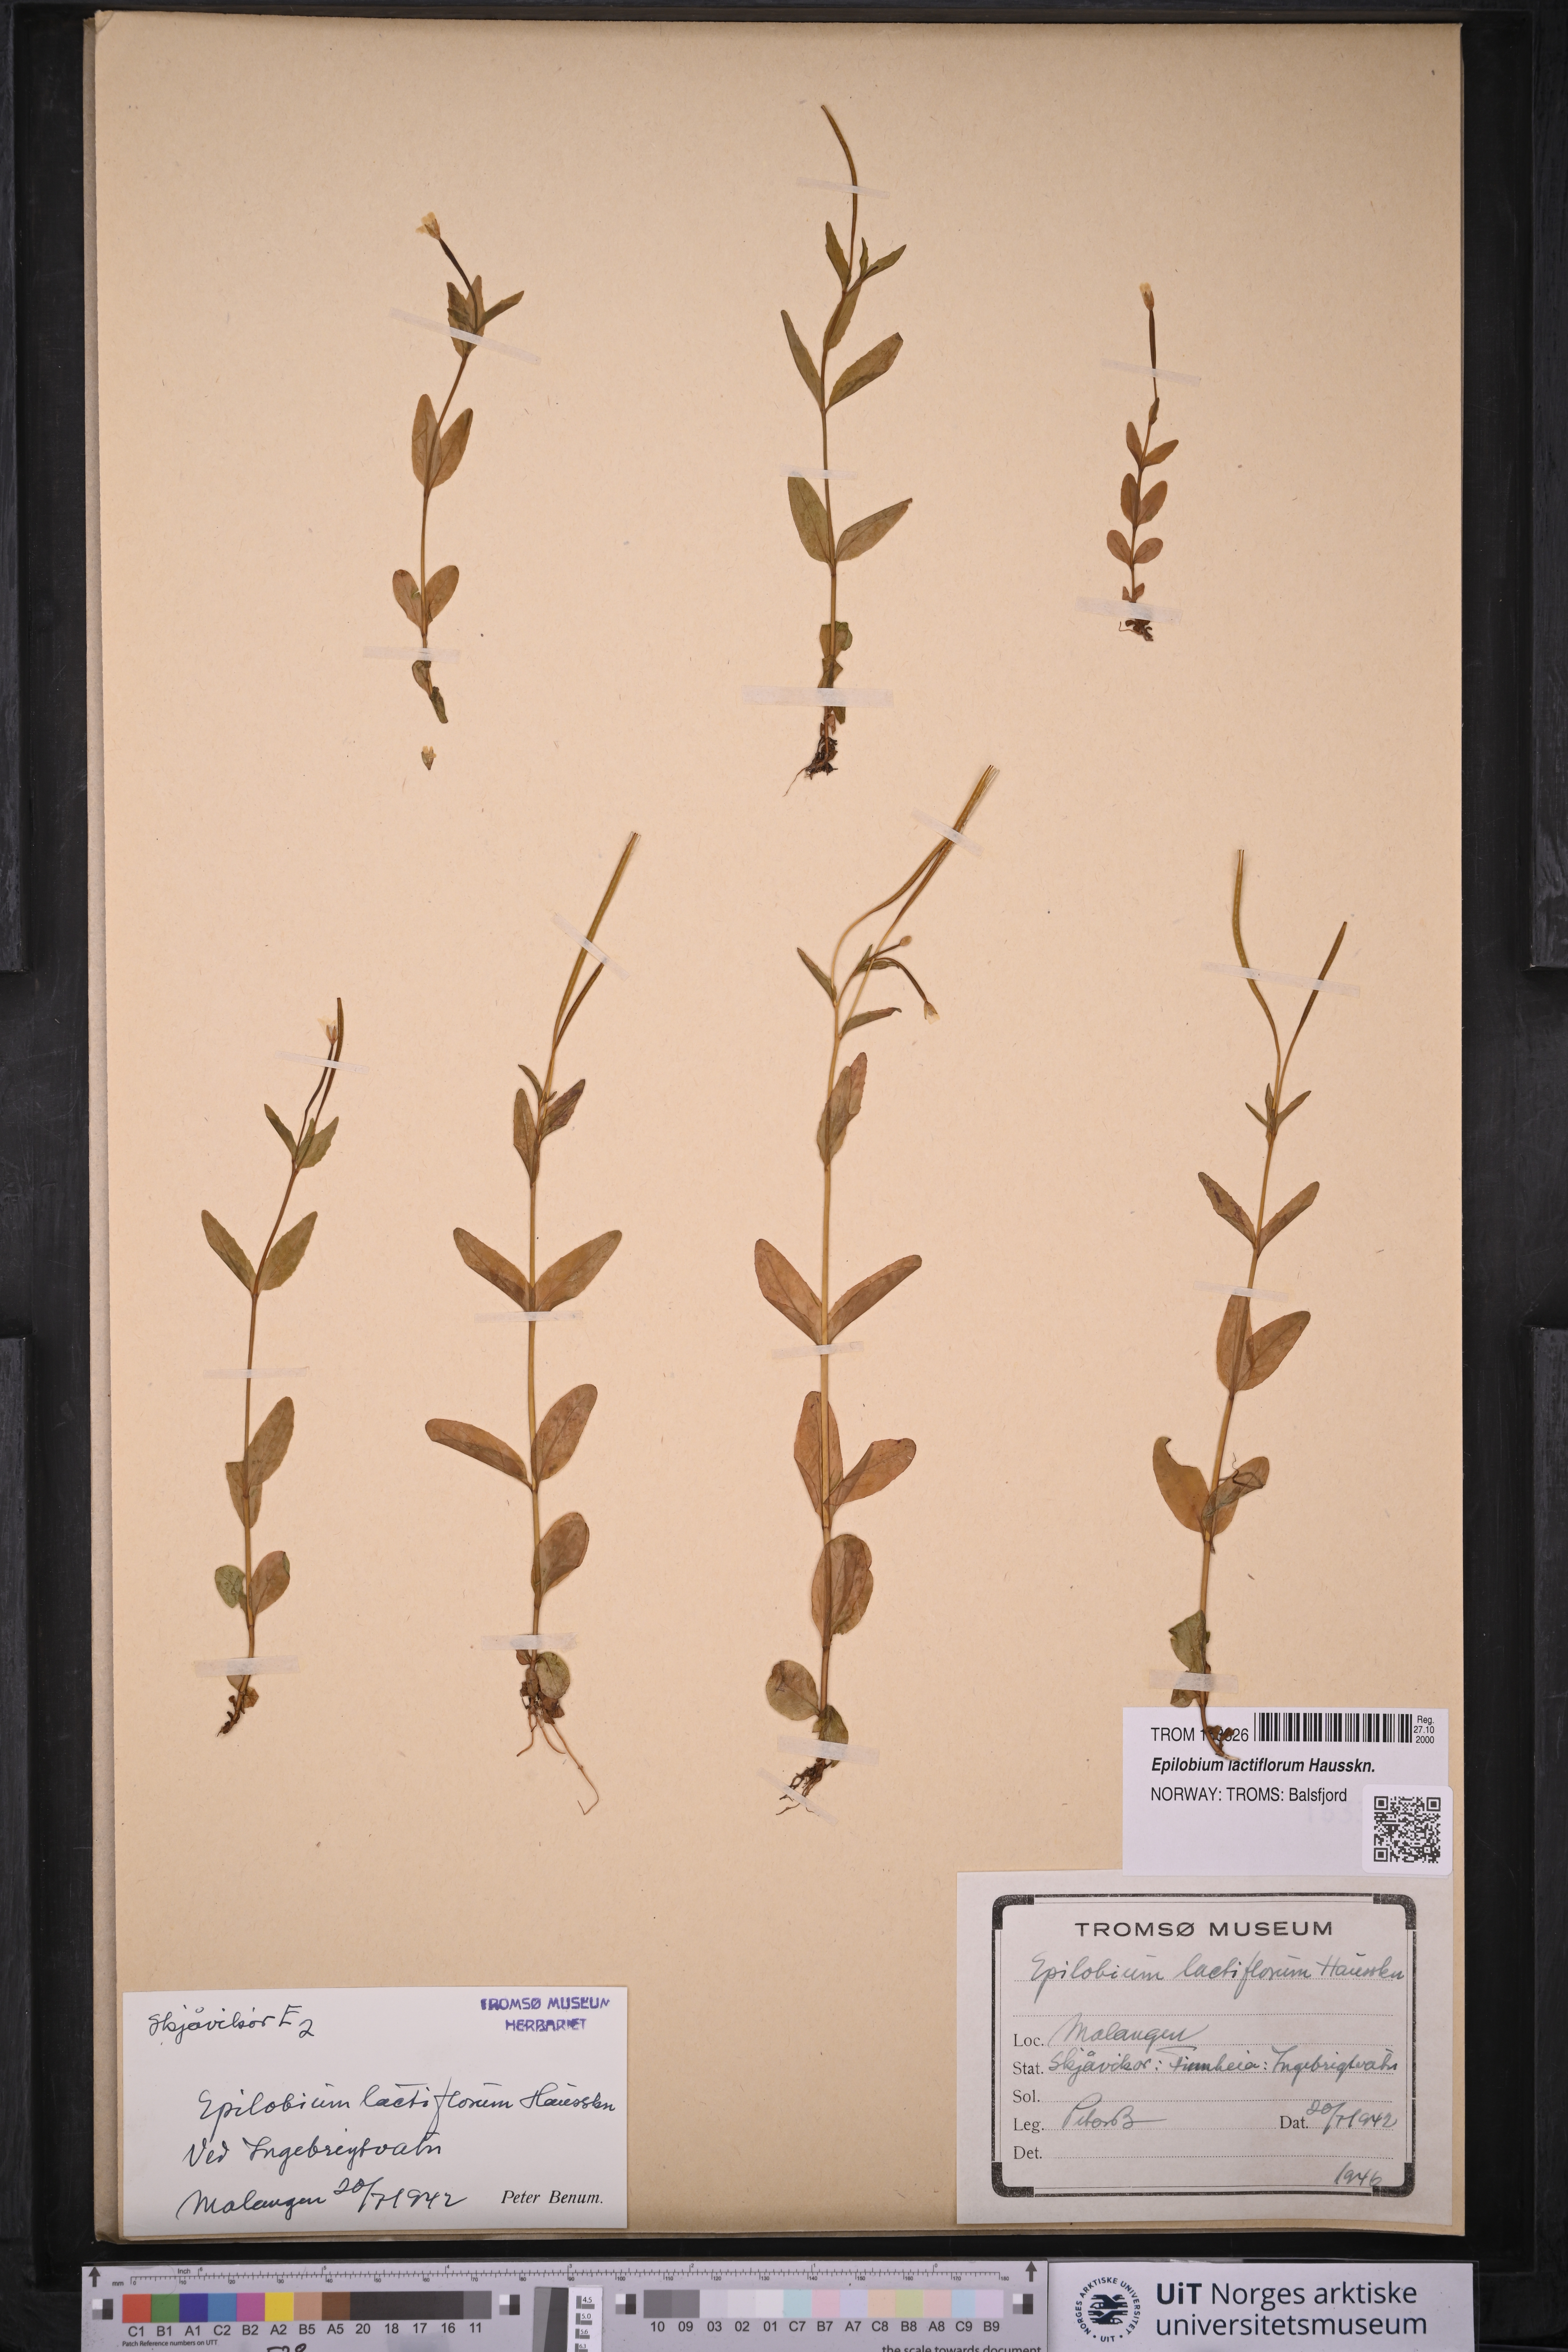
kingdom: Plantae
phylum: Tracheophyta
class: Magnoliopsida
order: Myrtales
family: Onagraceae
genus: Epilobium
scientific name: Epilobium lactiflorum
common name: Milkflower willowherb
